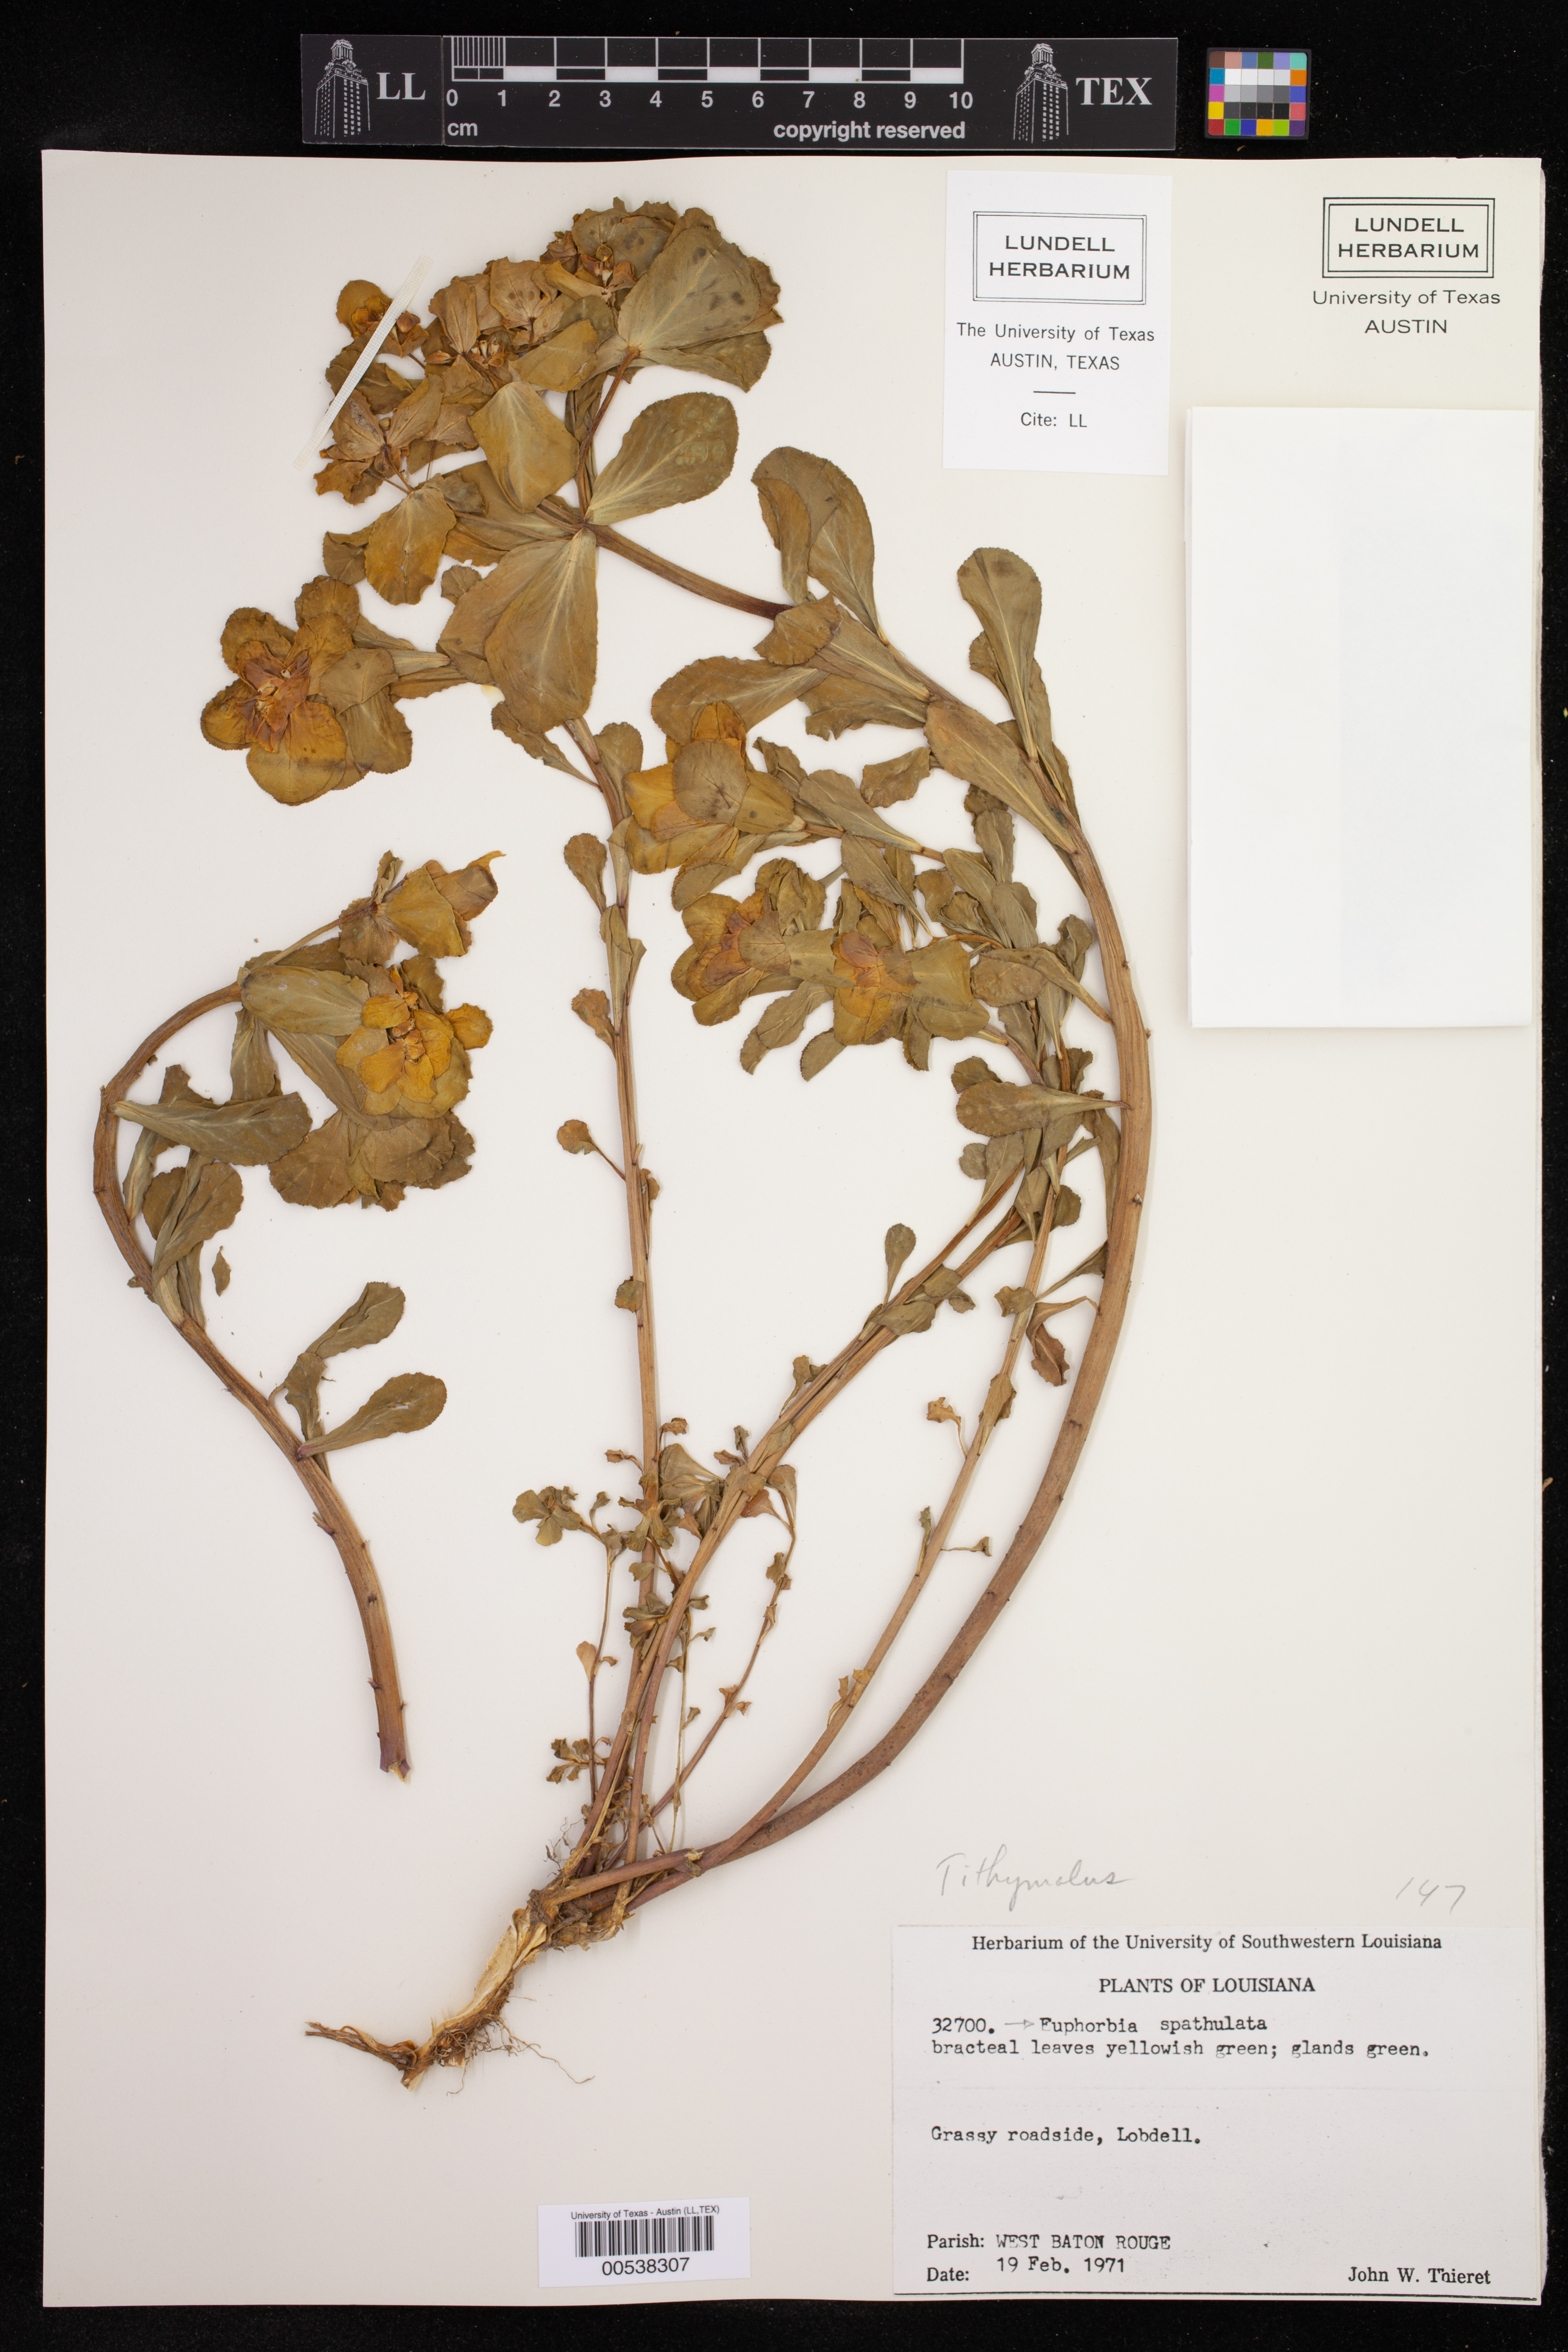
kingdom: Plantae
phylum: Tracheophyta
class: Magnoliopsida
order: Malpighiales
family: Euphorbiaceae
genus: Euphorbia
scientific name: Euphorbia helioscopia
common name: Sun spurge
